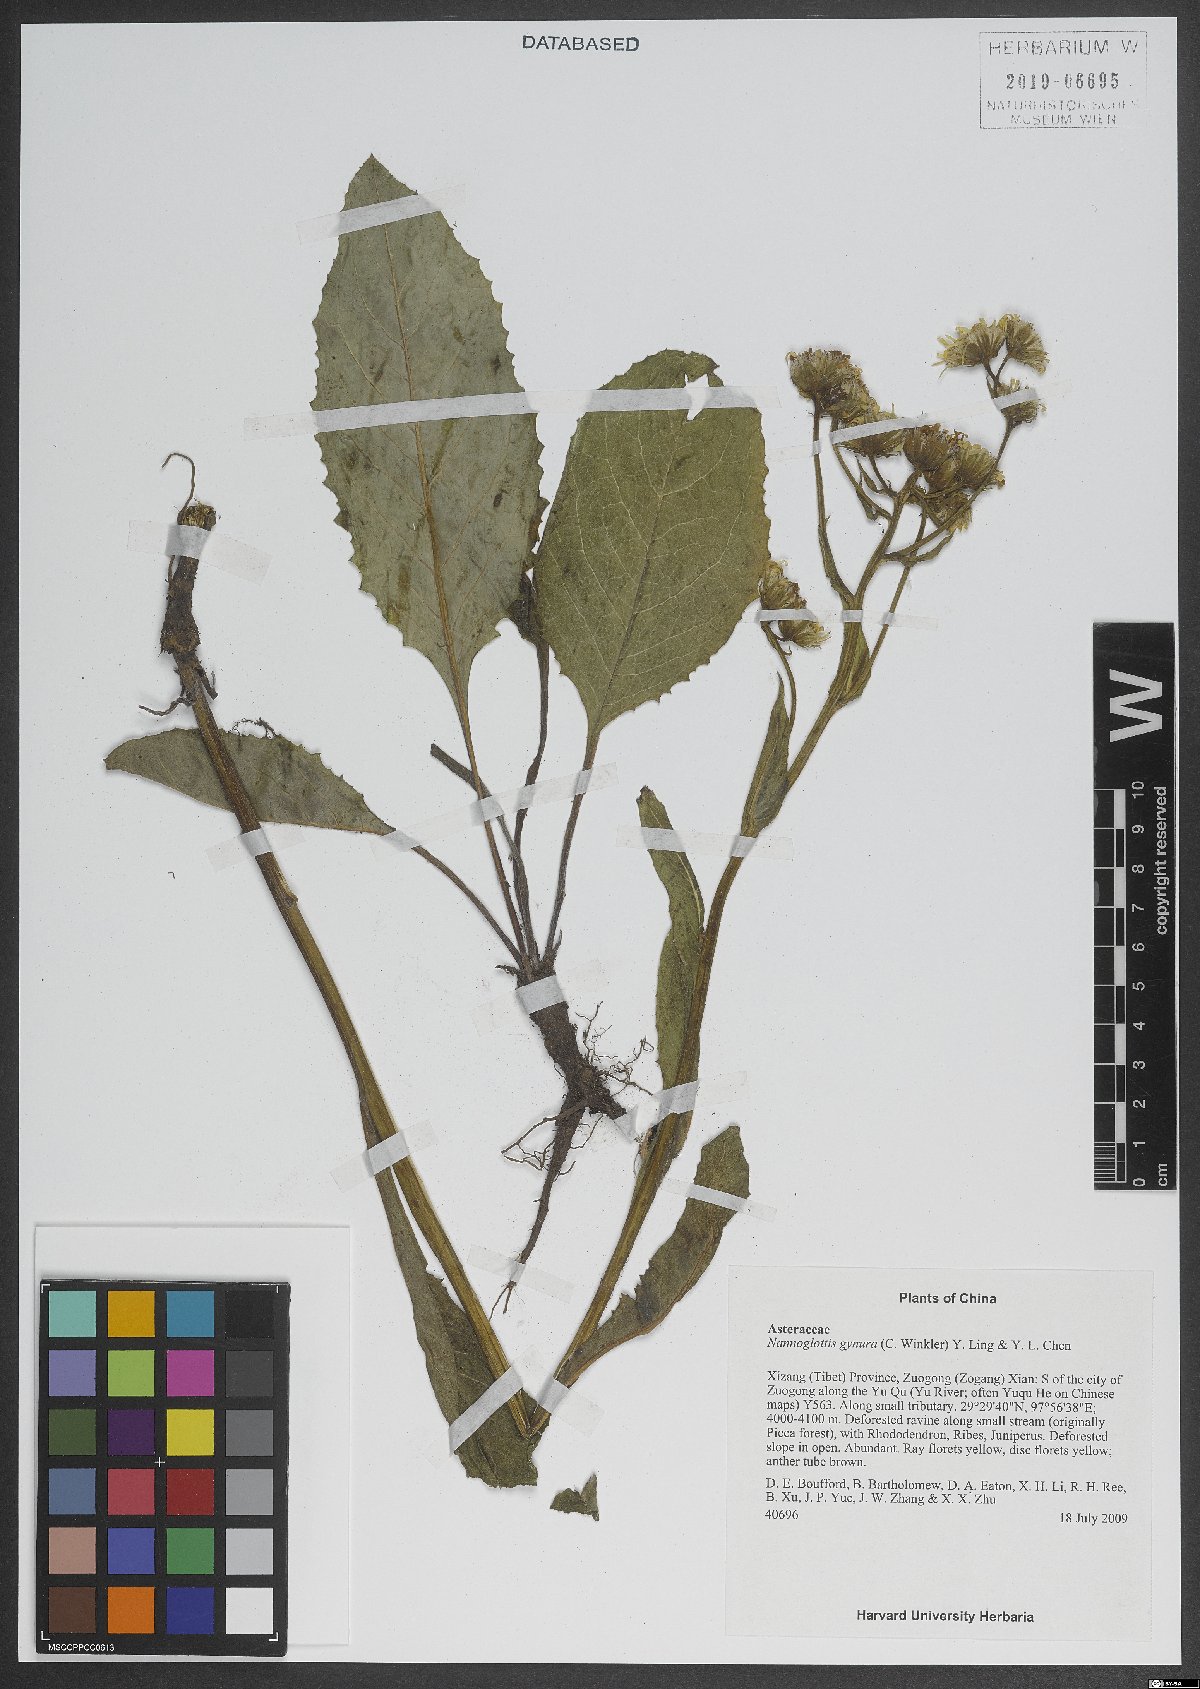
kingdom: Plantae
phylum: Tracheophyta
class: Magnoliopsida
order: Asterales
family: Asteraceae
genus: Nannoglottis
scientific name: Nannoglottis gynura
